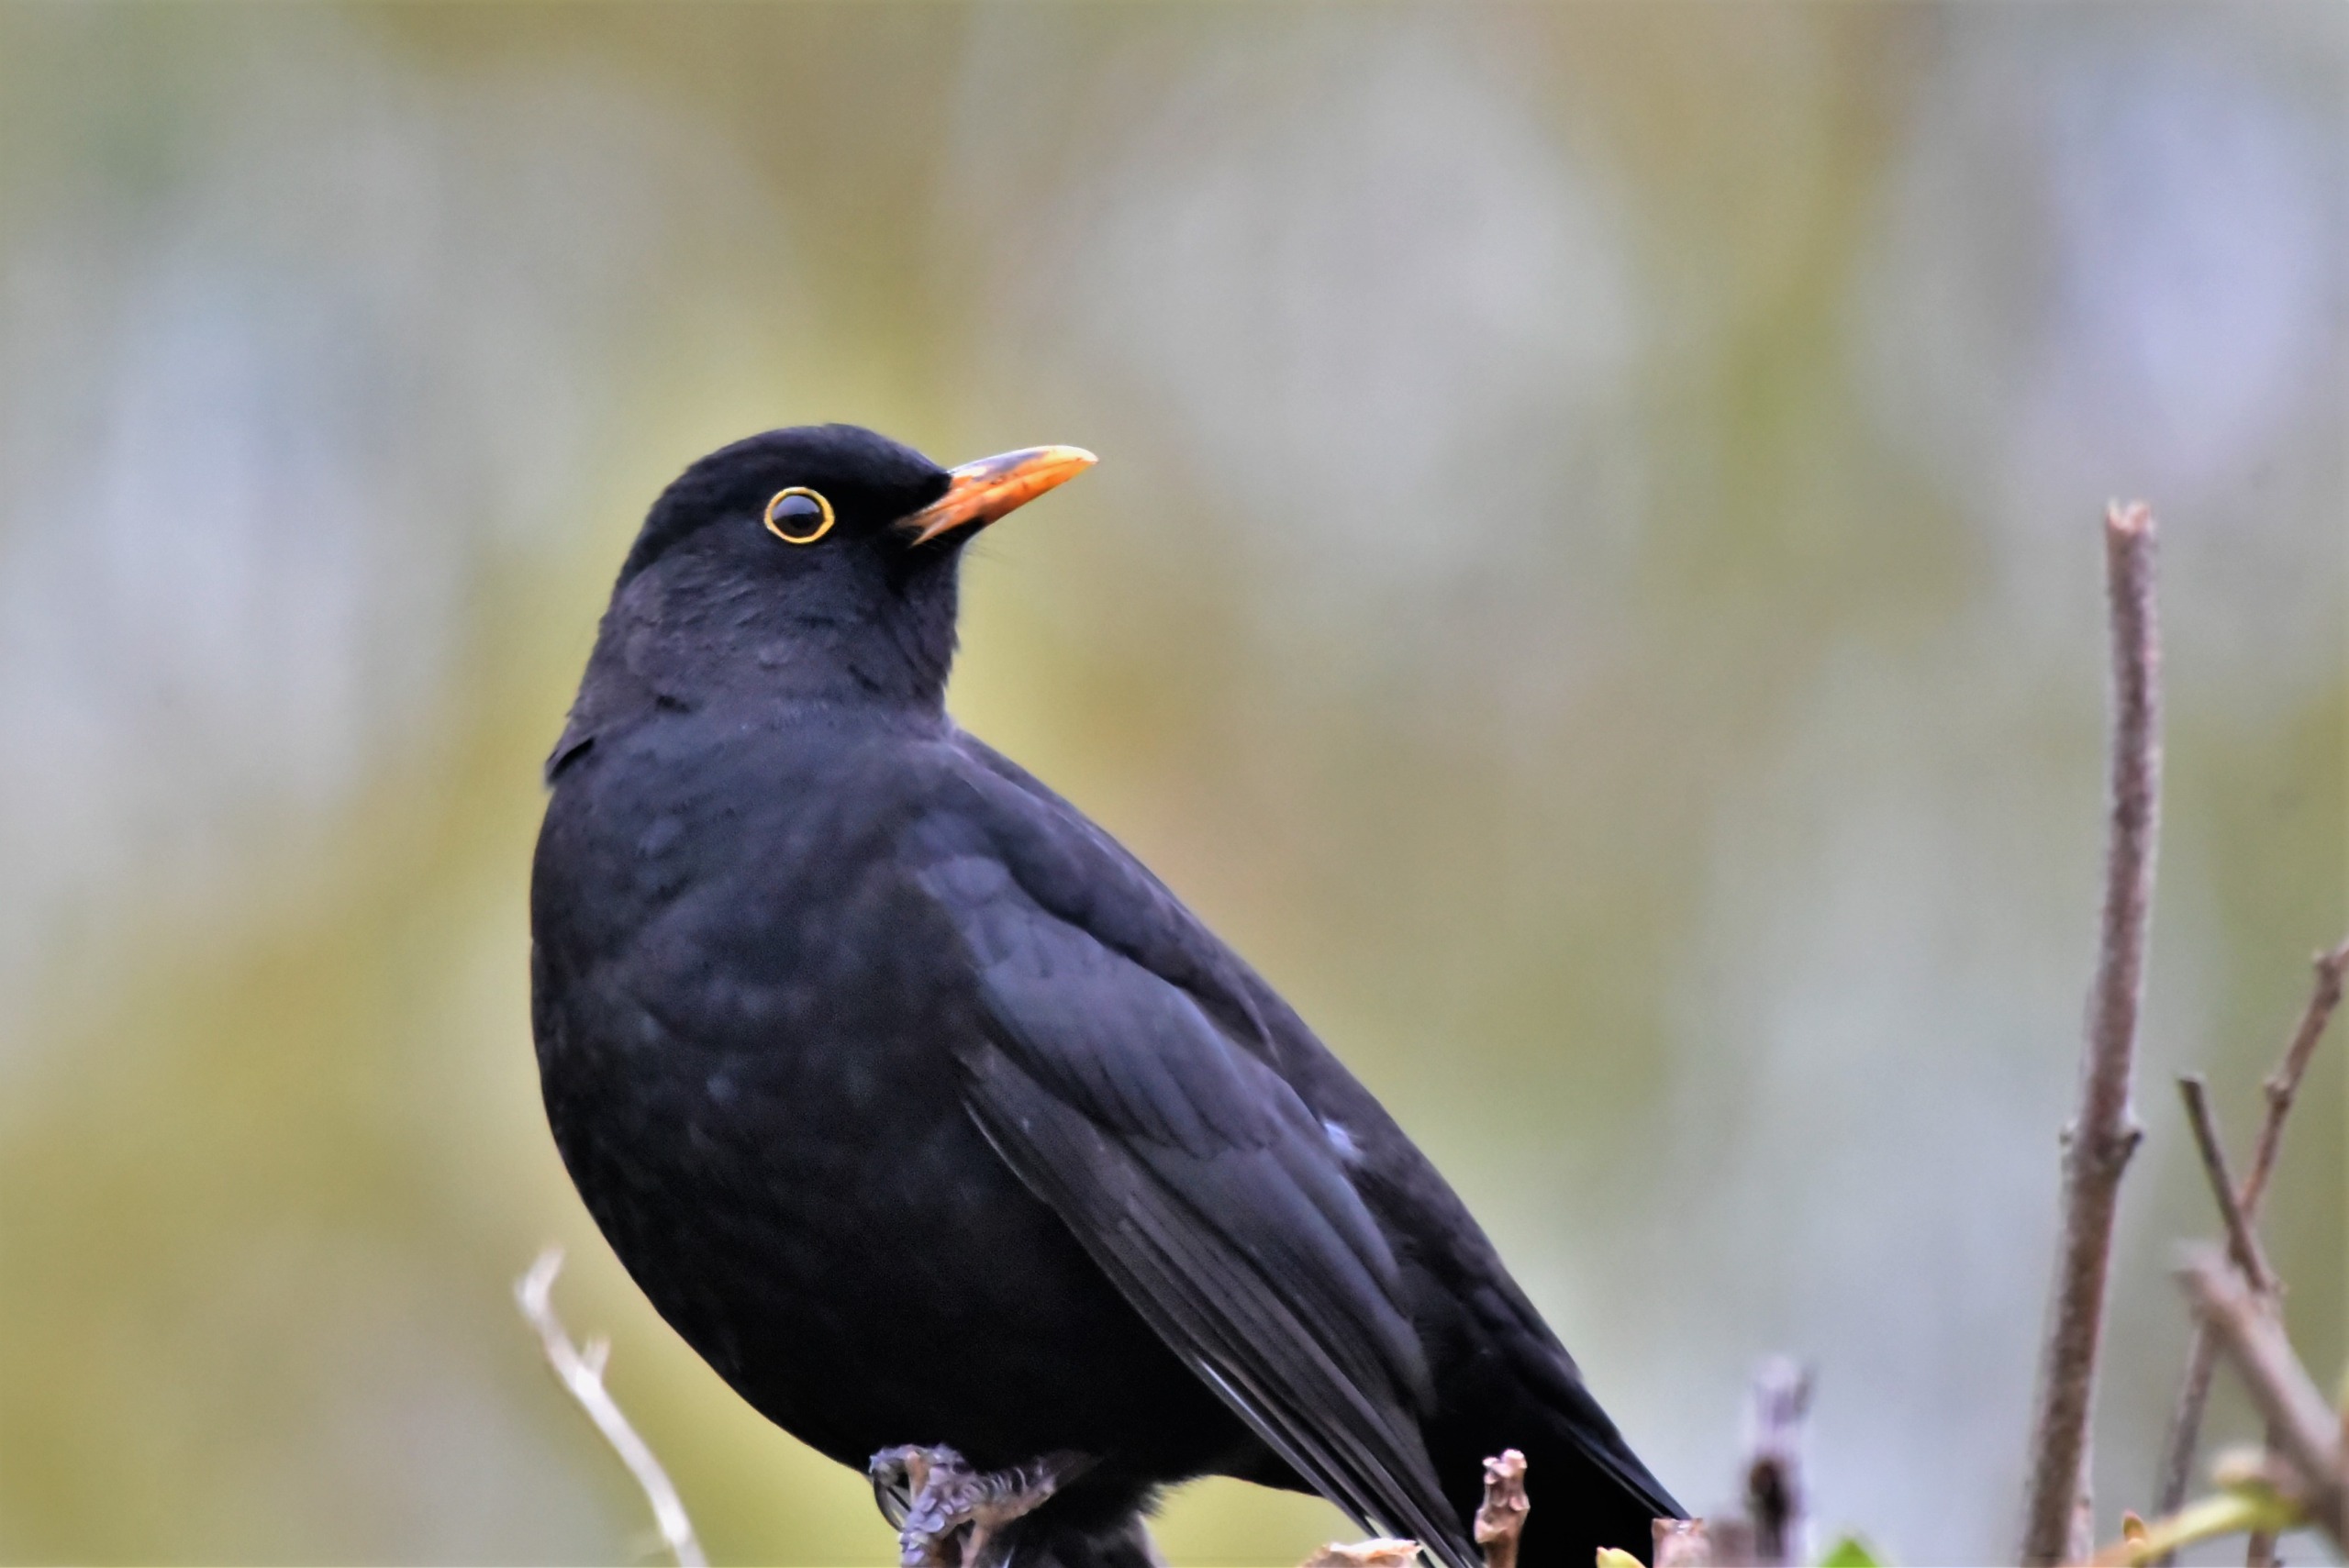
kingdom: Animalia
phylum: Chordata
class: Aves
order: Passeriformes
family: Turdidae
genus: Turdus
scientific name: Turdus merula
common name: Solsort
